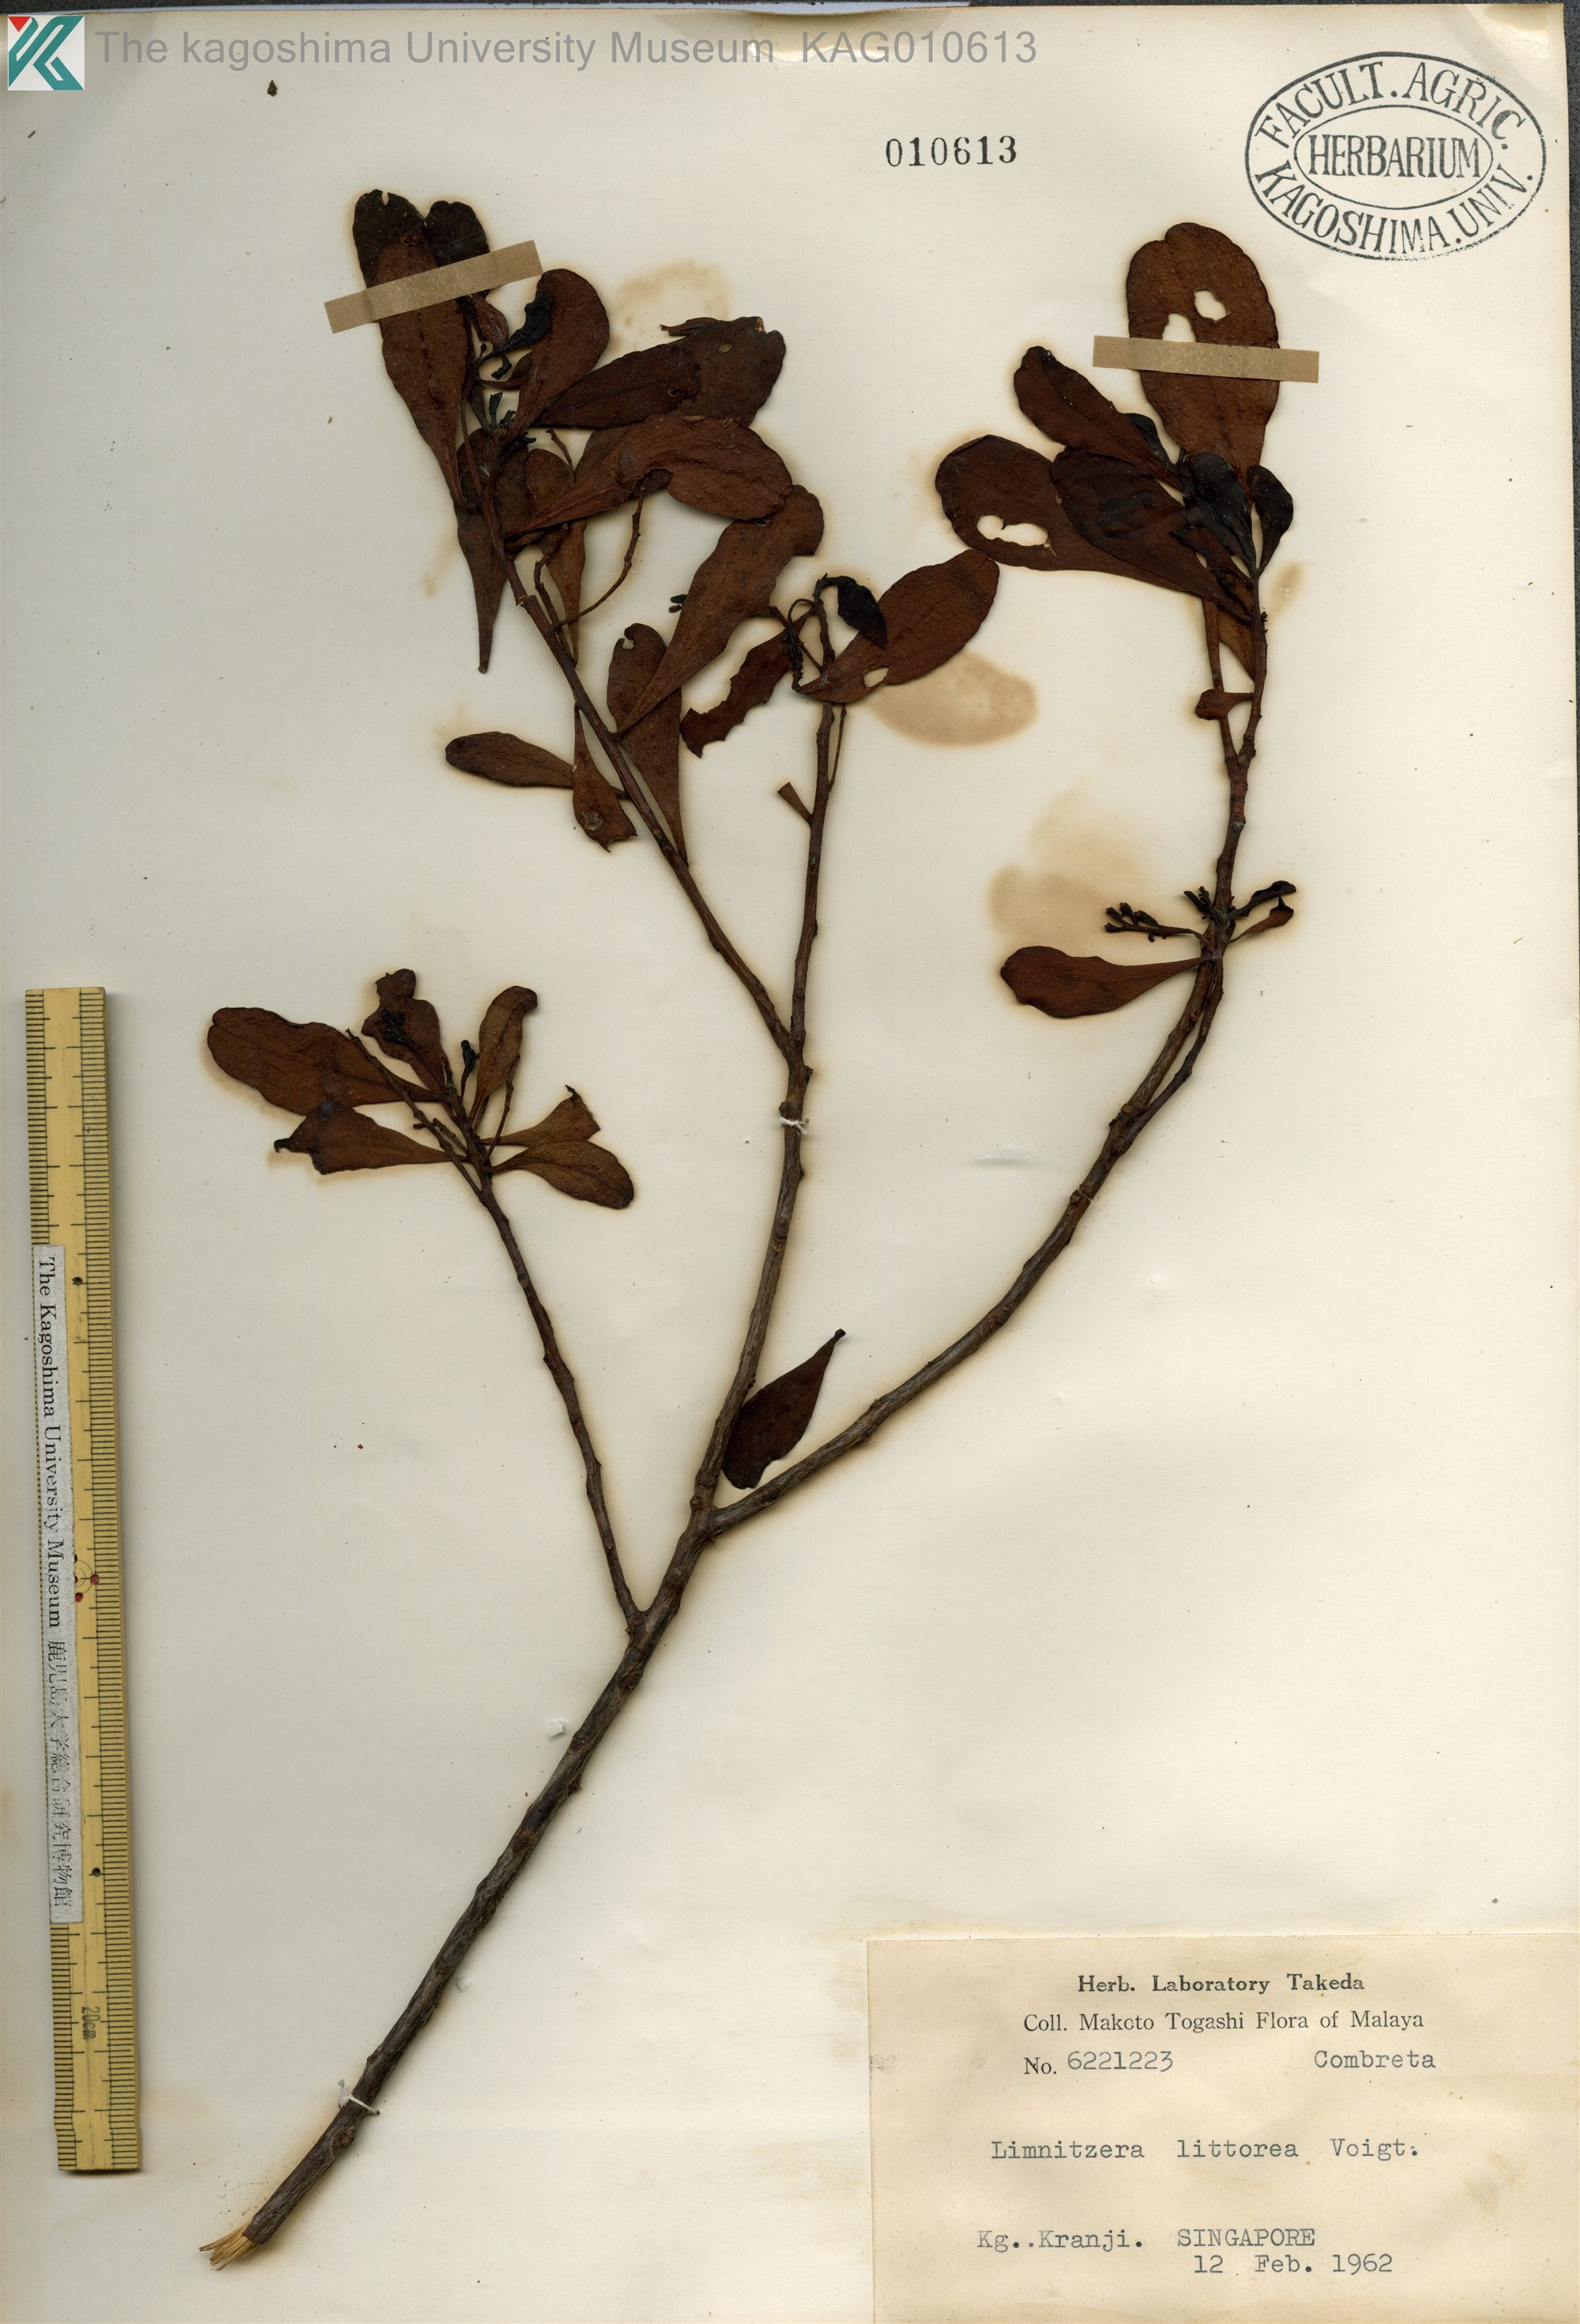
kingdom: Plantae
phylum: Tracheophyta
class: Magnoliopsida
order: Myrtales
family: Combretaceae
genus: Lumnitzera
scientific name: Lumnitzera racemosa
